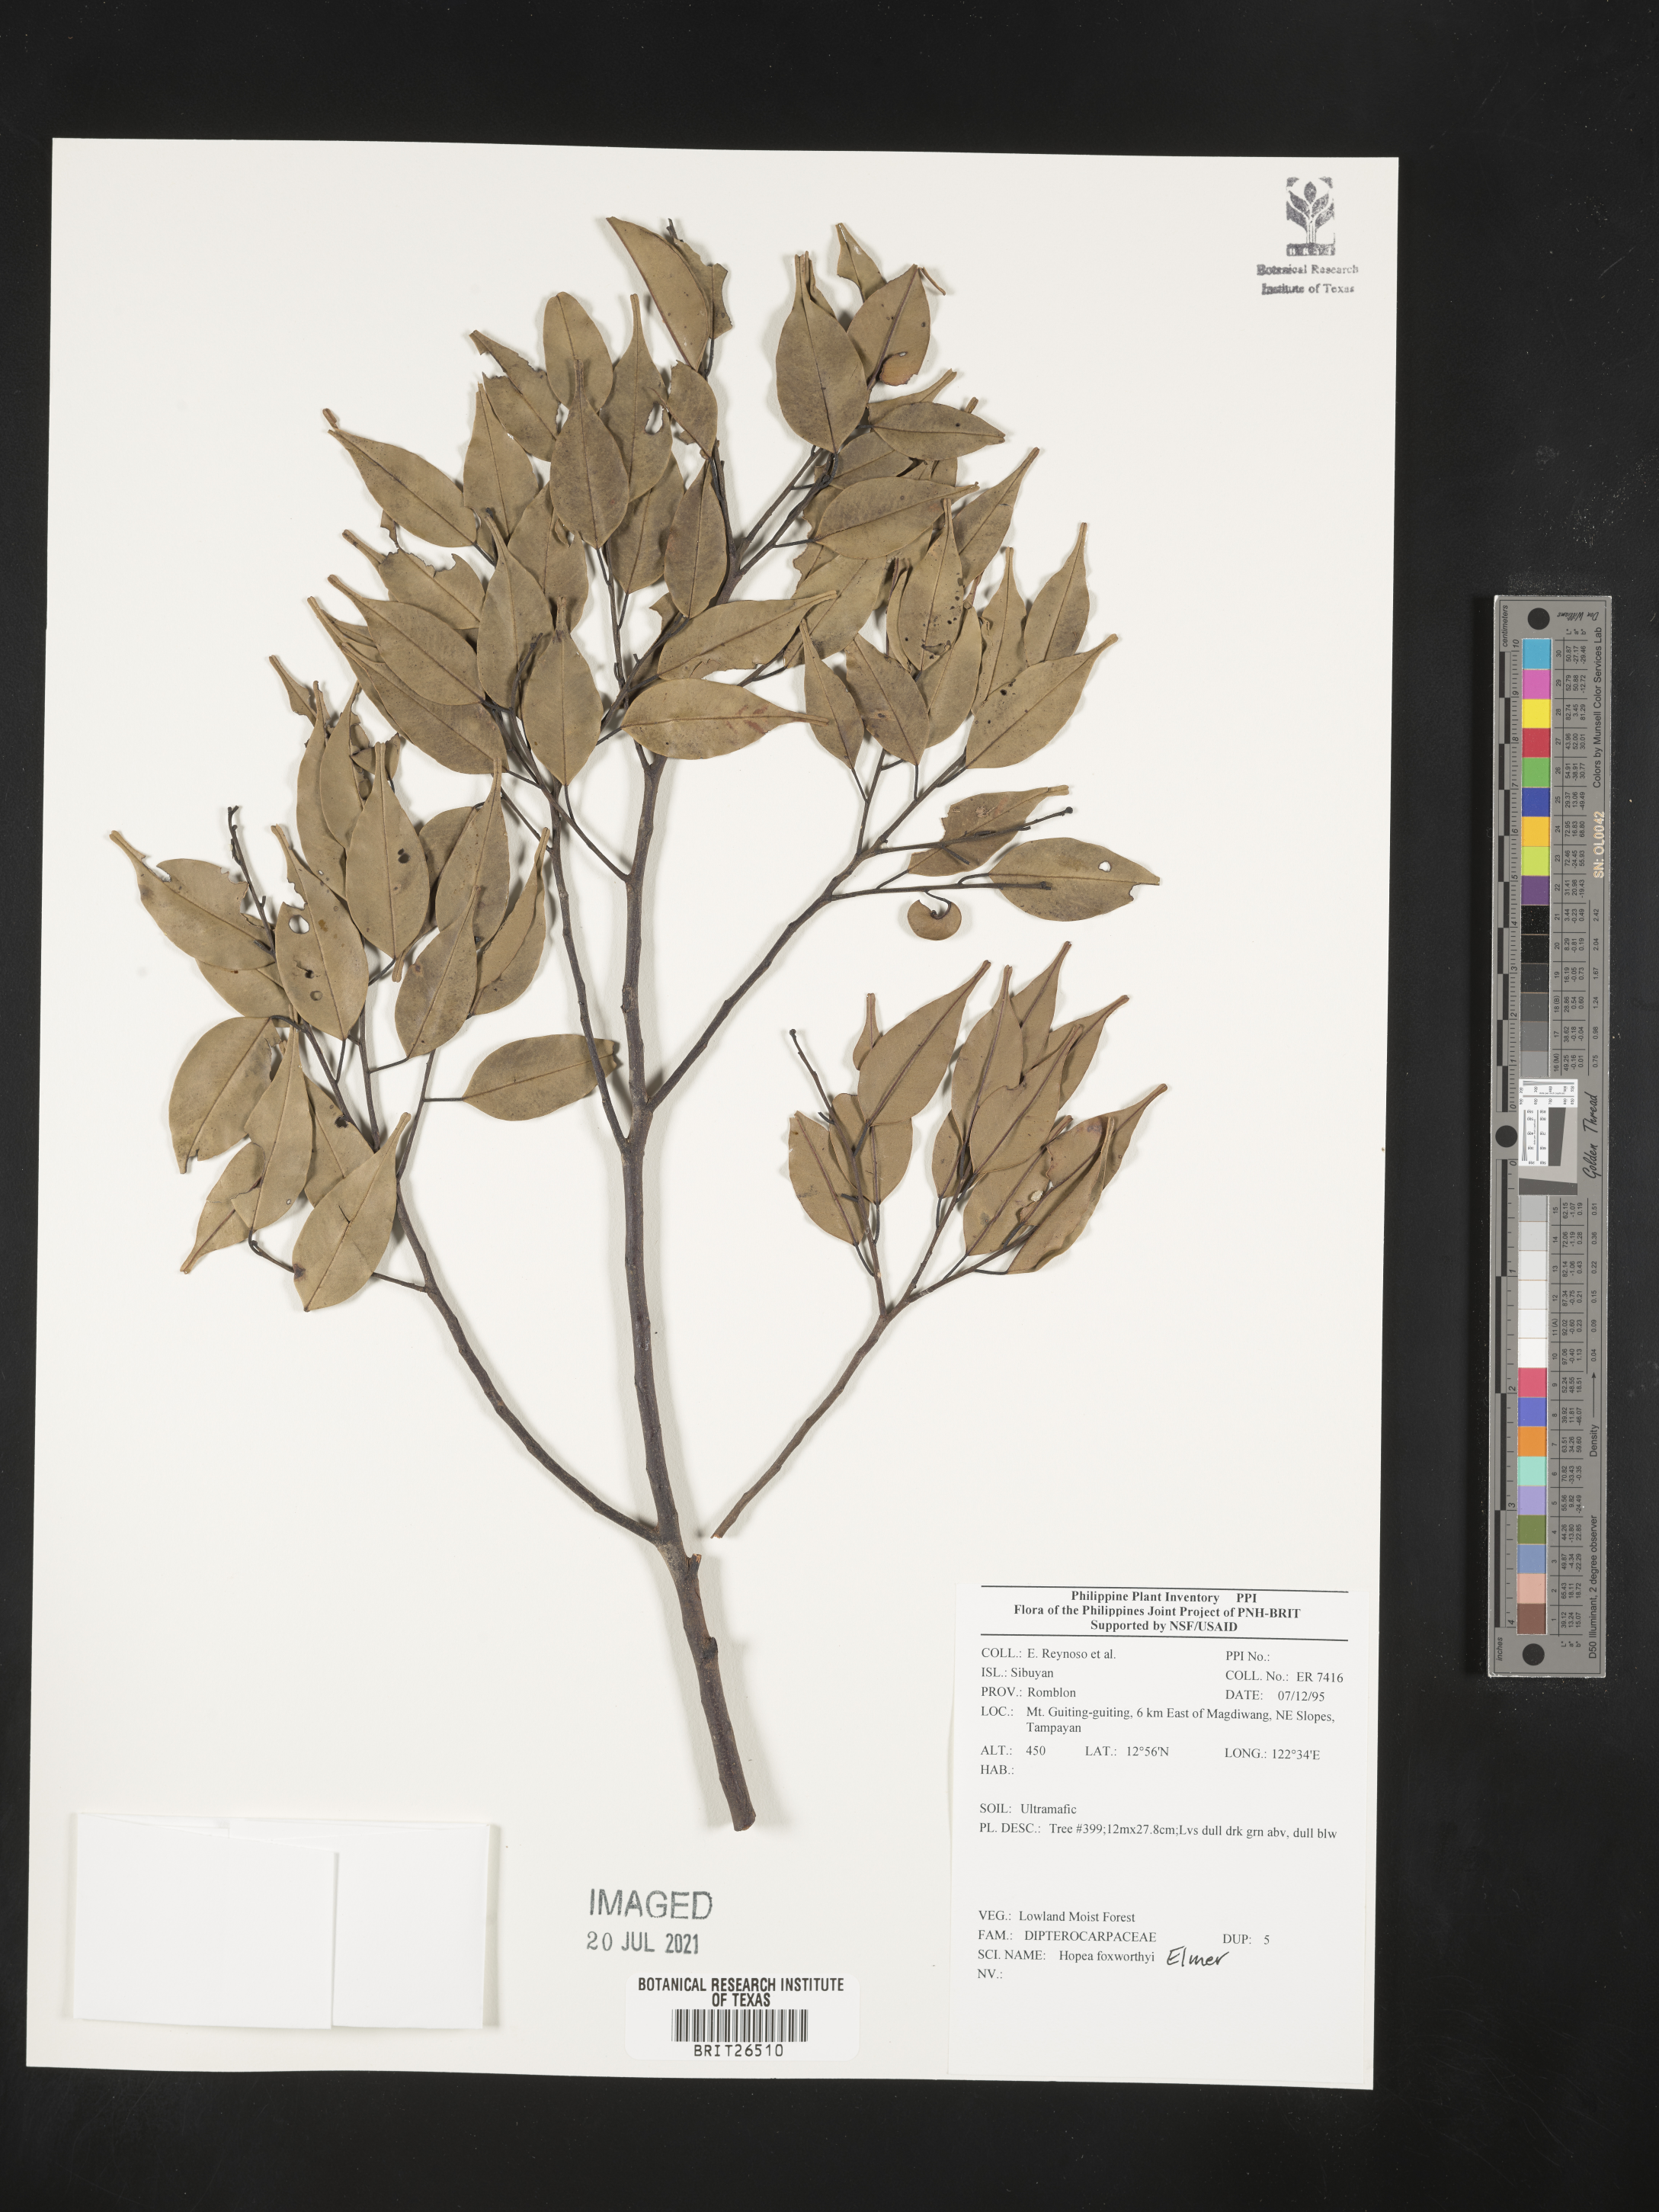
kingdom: Plantae
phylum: Tracheophyta
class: Magnoliopsida
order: Malvales
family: Dipterocarpaceae
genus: Hopea
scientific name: Hopea foxworthyi
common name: Dalingdingan
